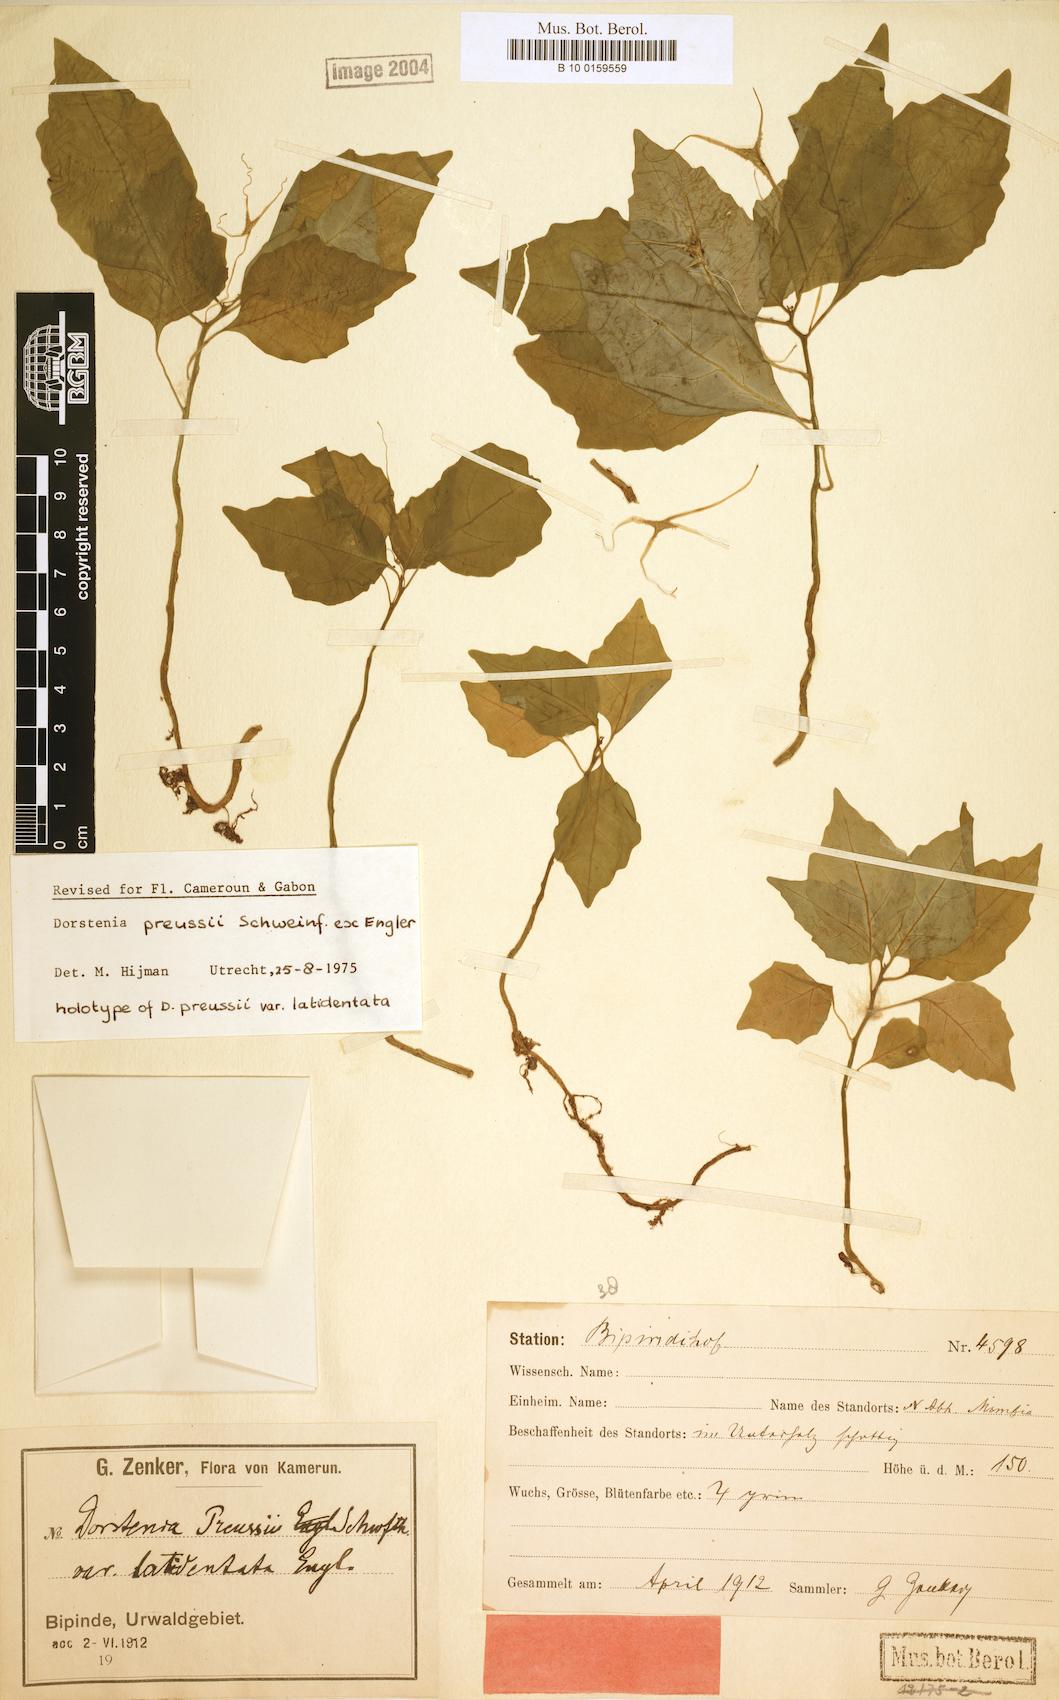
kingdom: Plantae
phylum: Tracheophyta
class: Magnoliopsida
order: Rosales
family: Moraceae
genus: Dorstenia
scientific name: Dorstenia cuspidata
